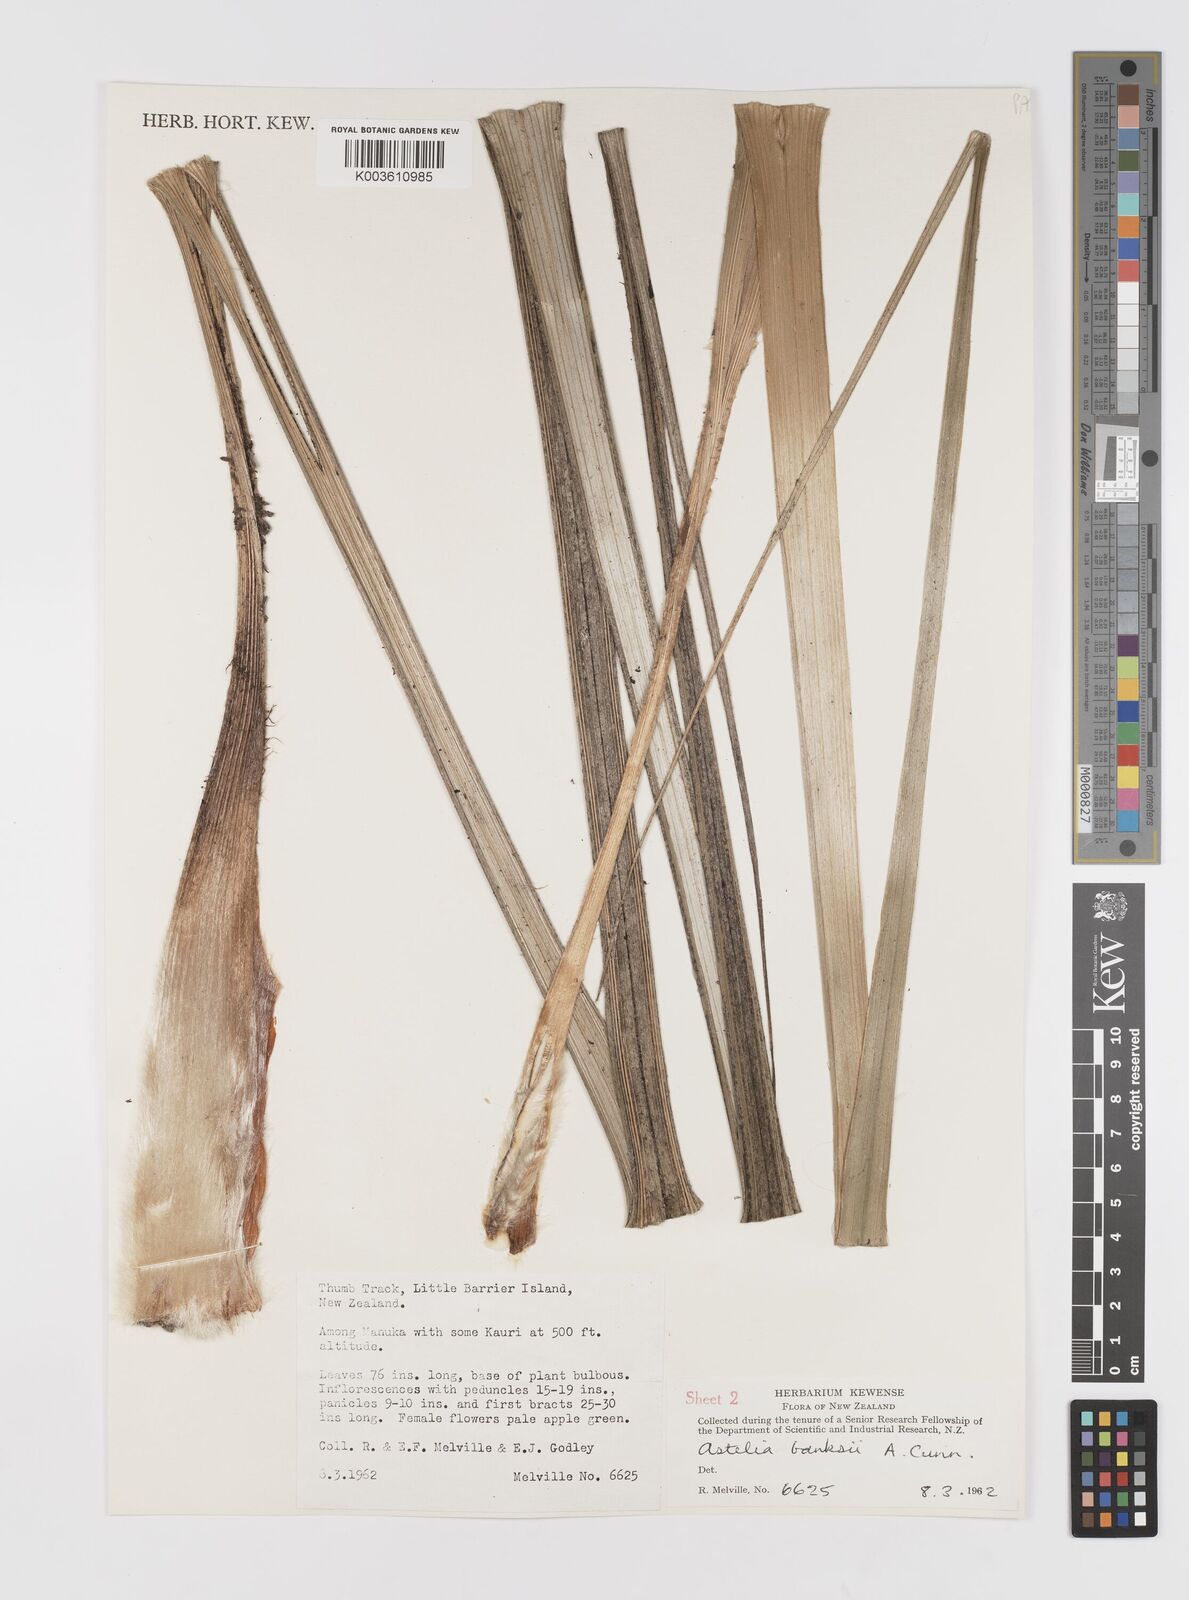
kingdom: Plantae
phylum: Tracheophyta
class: Liliopsida
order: Asparagales
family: Asteliaceae
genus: Astelia
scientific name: Astelia banksii
